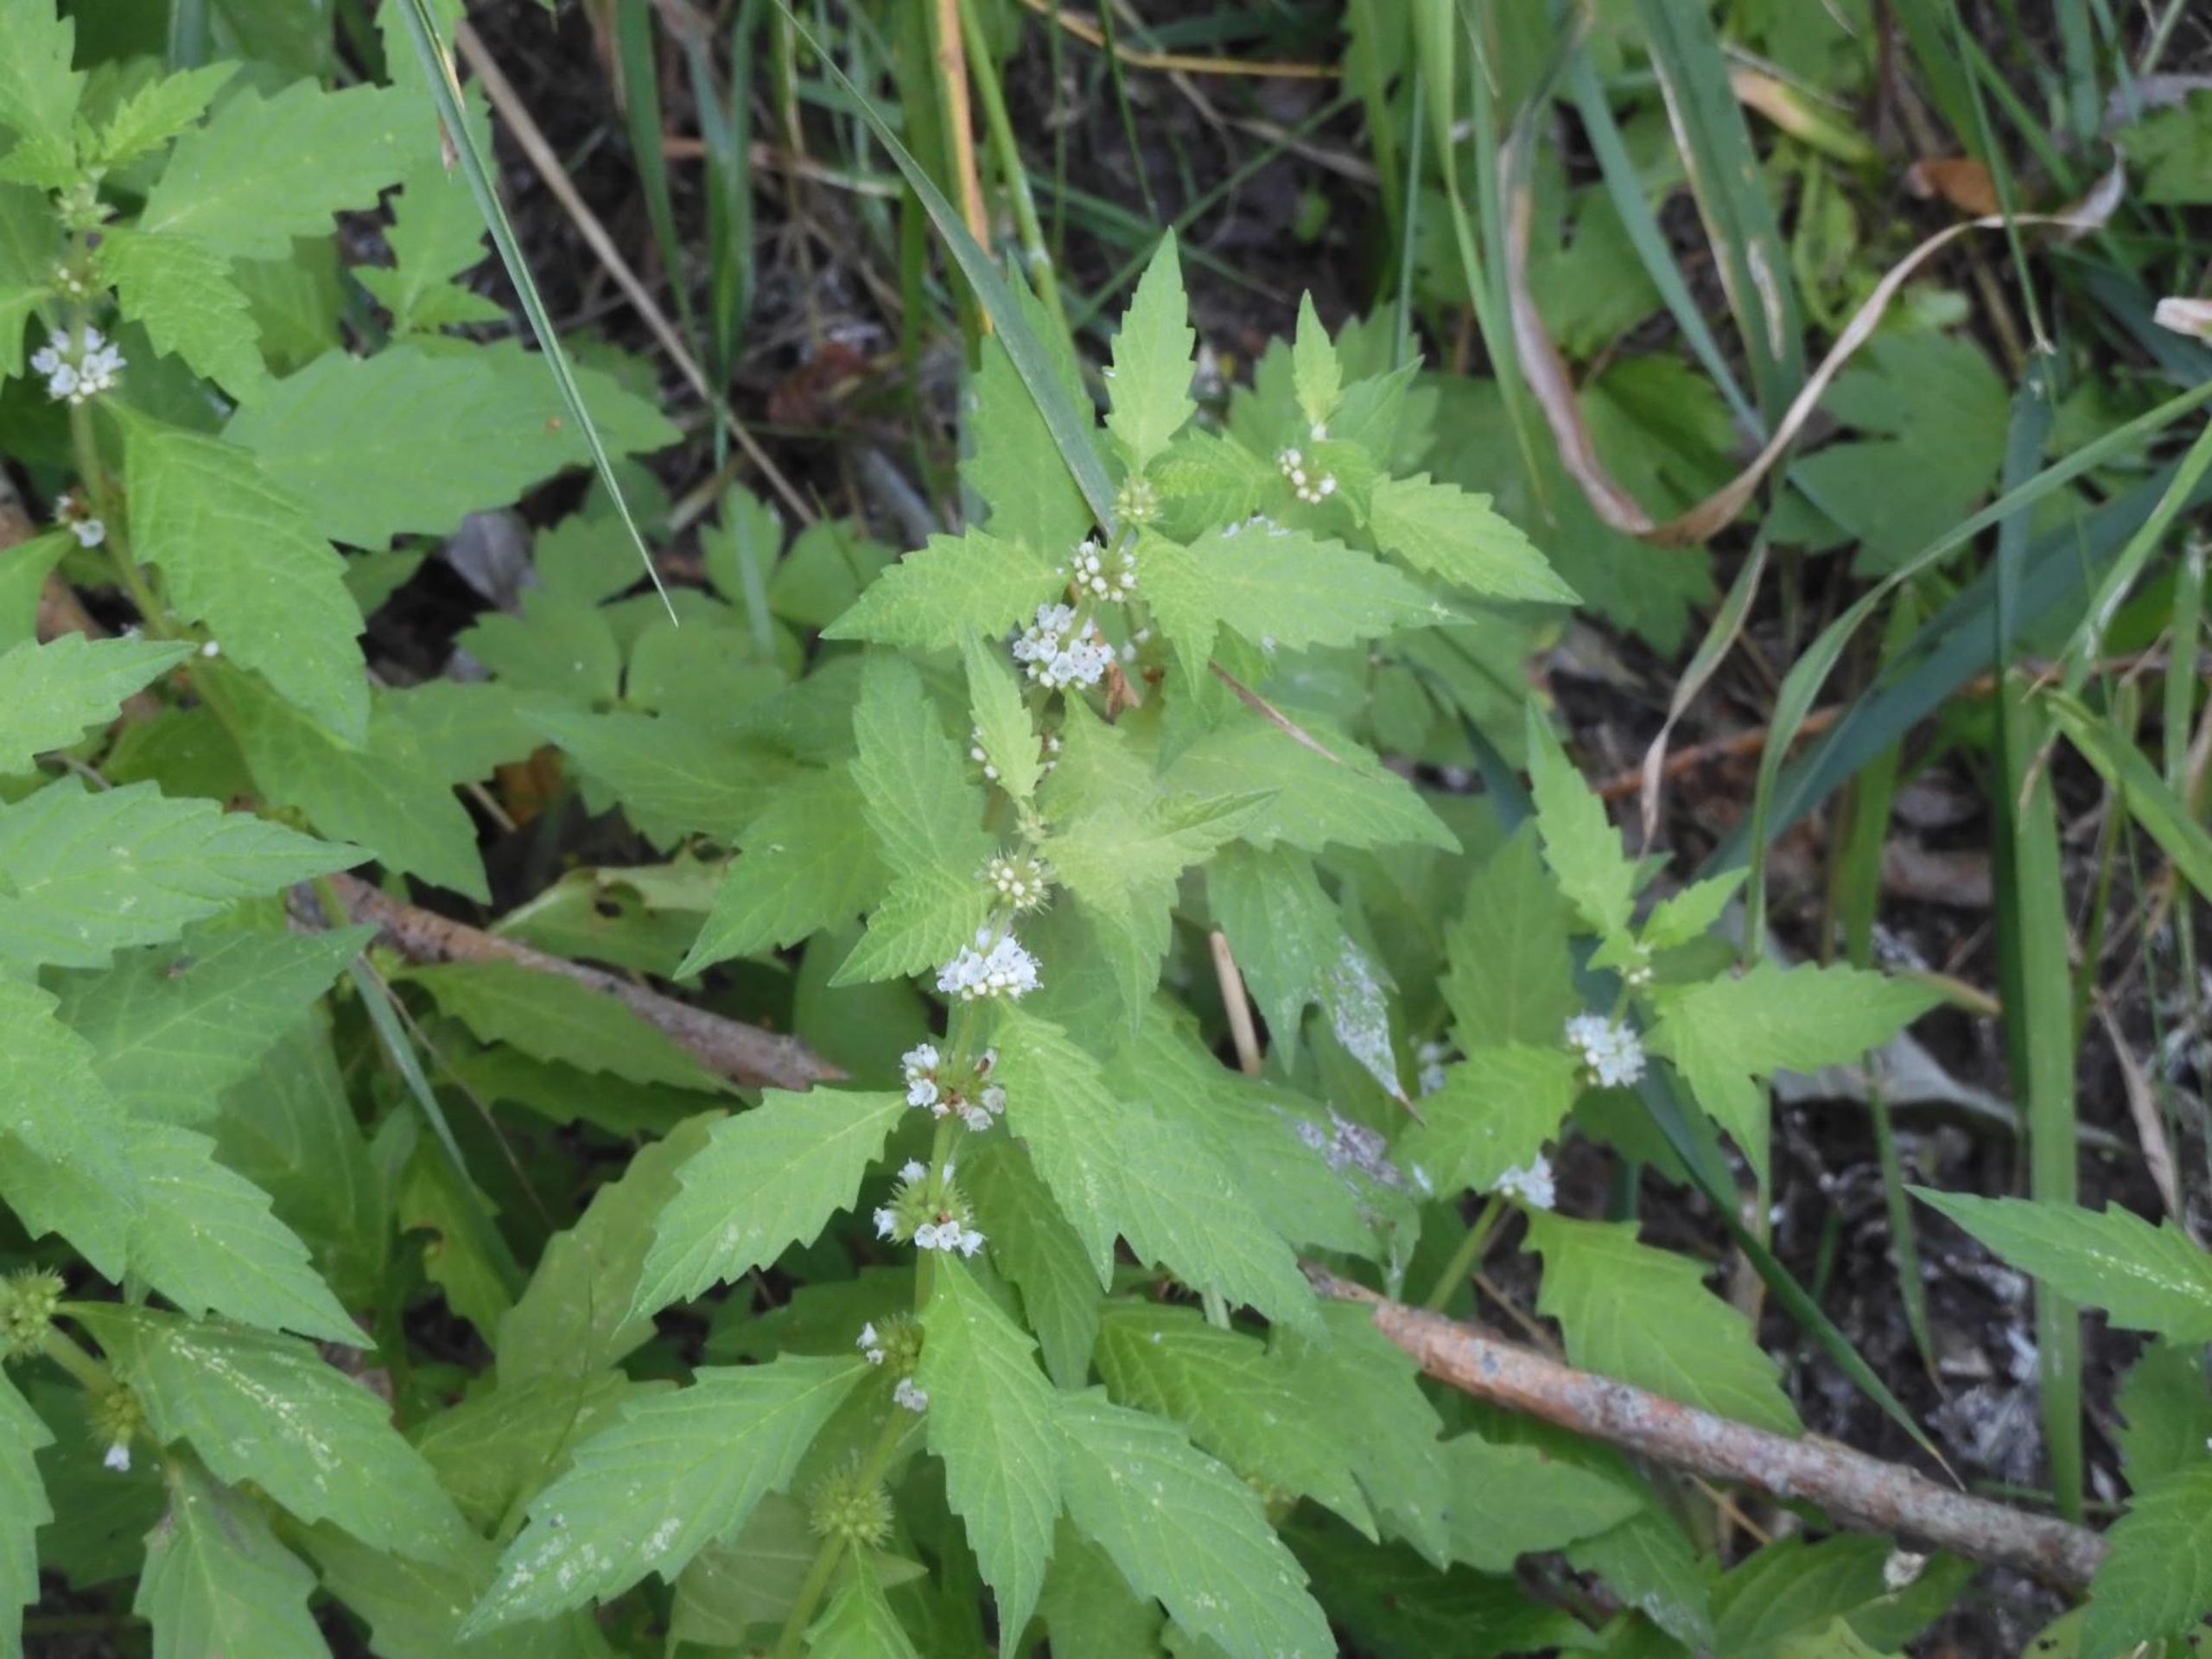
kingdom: Plantae
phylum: Tracheophyta
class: Magnoliopsida
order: Lamiales
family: Lamiaceae
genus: Lycopus
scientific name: Lycopus europaeus
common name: Sværtevæld
